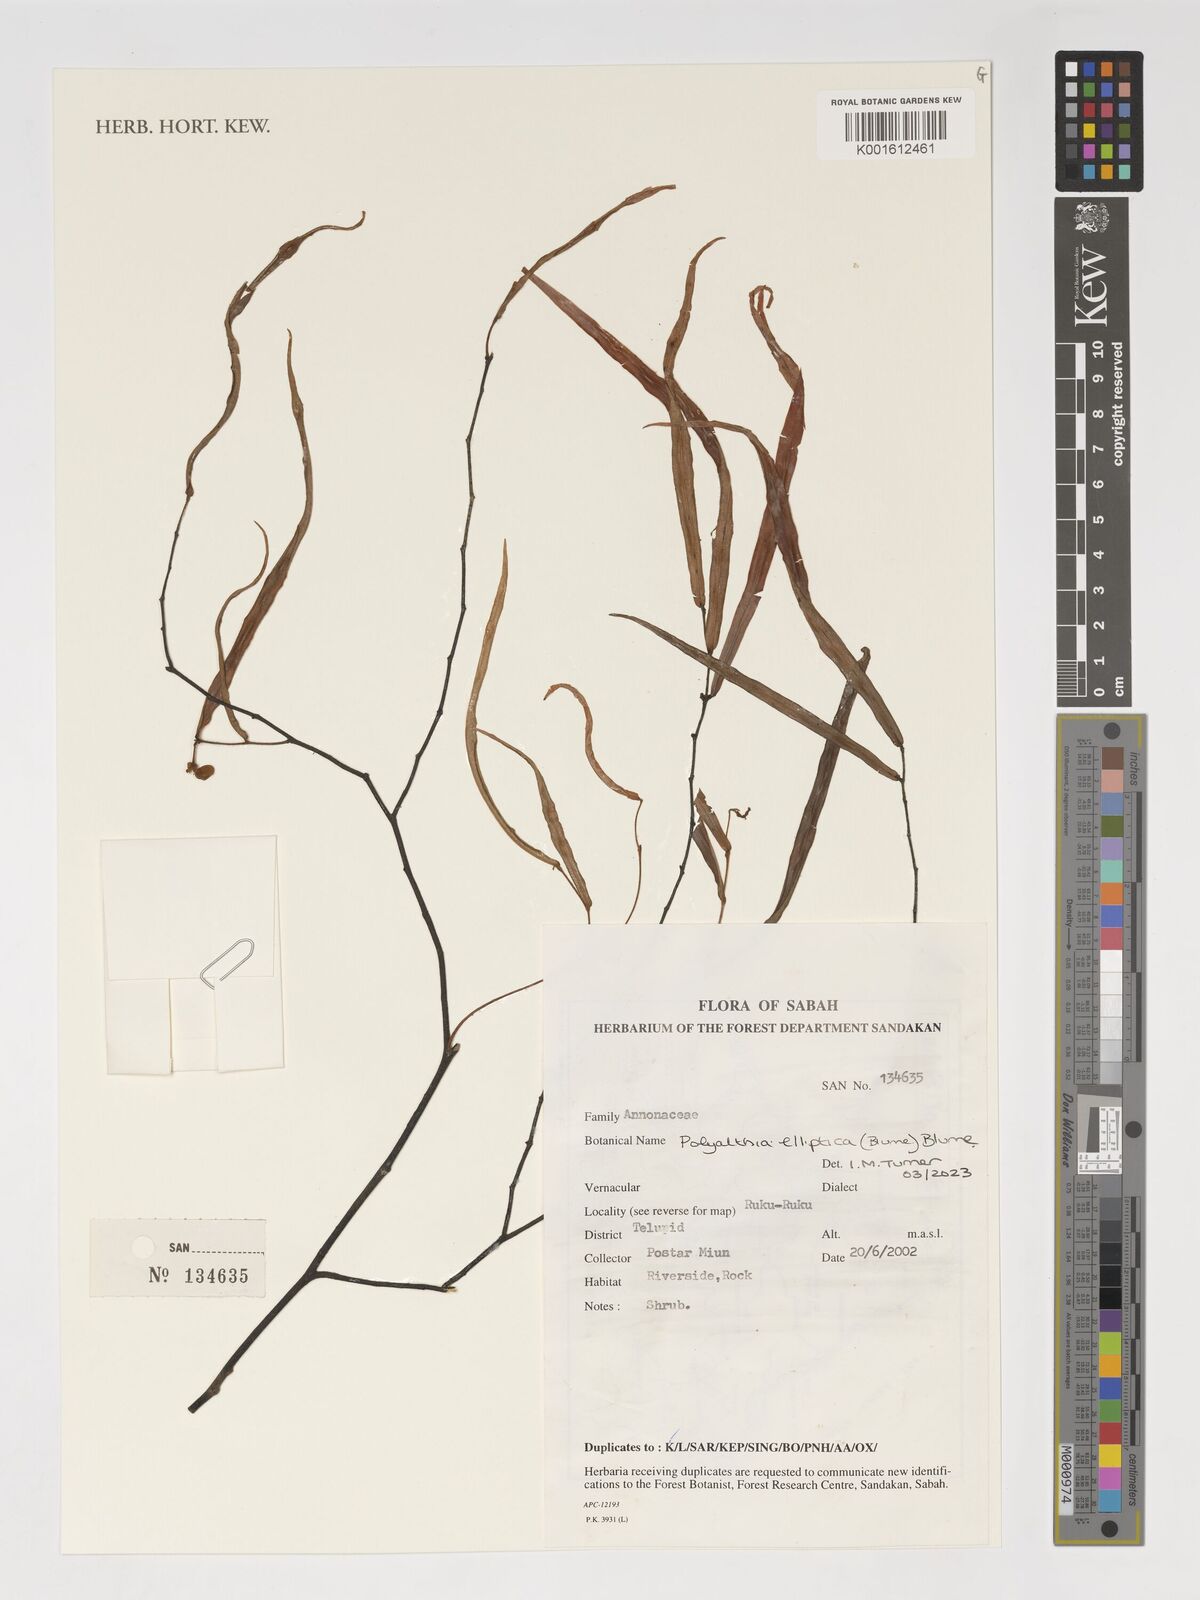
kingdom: Plantae
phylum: Tracheophyta
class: Magnoliopsida
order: Magnoliales
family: Annonaceae
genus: Polyalthia
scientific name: Polyalthia elliptica
